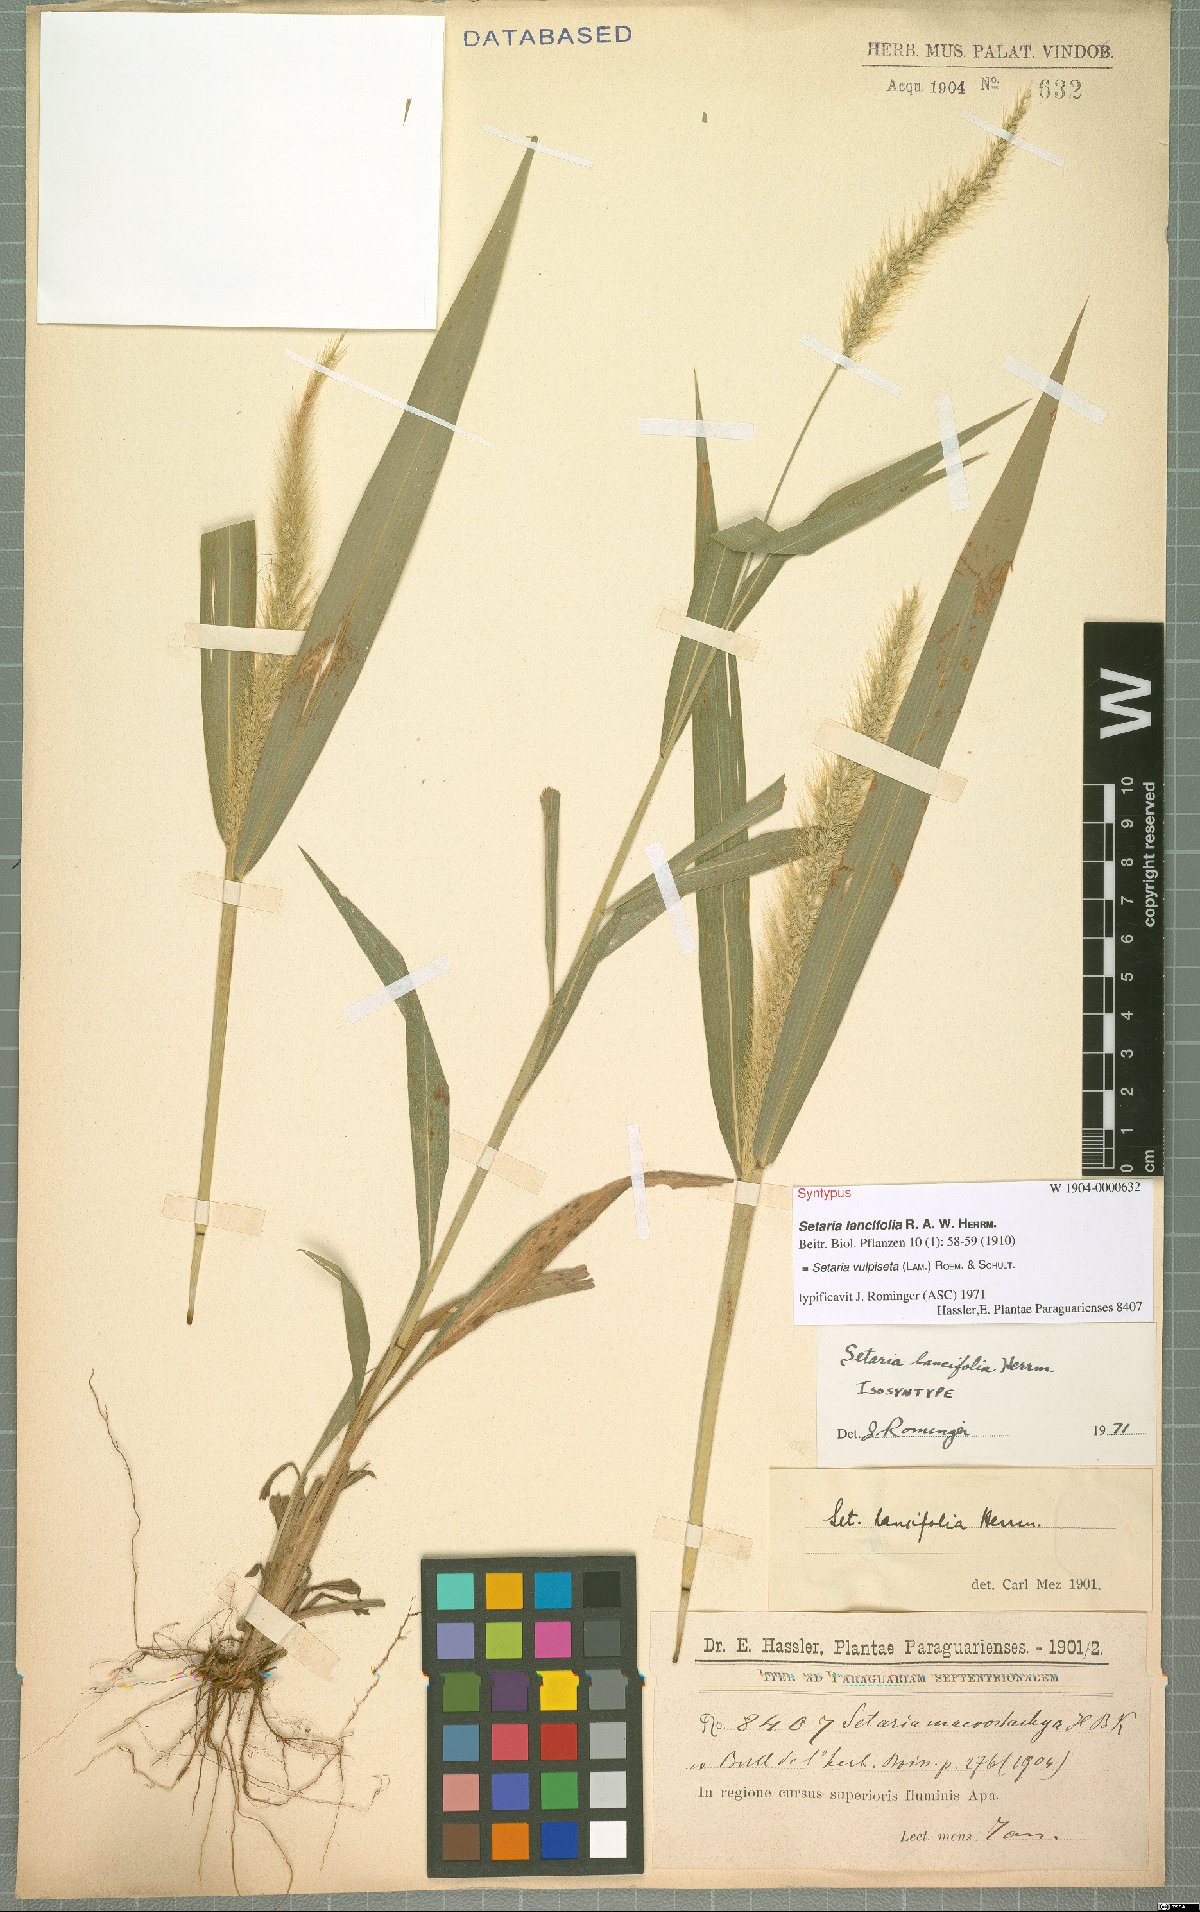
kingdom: Plantae
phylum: Tracheophyta
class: Liliopsida
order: Poales
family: Poaceae
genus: Setaria
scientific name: Setaria vulpiseta
